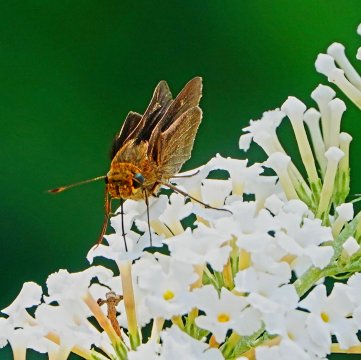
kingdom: Animalia
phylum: Arthropoda
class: Insecta
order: Lepidoptera
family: Hesperiidae
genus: Panoquina
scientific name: Panoquina ocola
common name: Ocola Skipper
